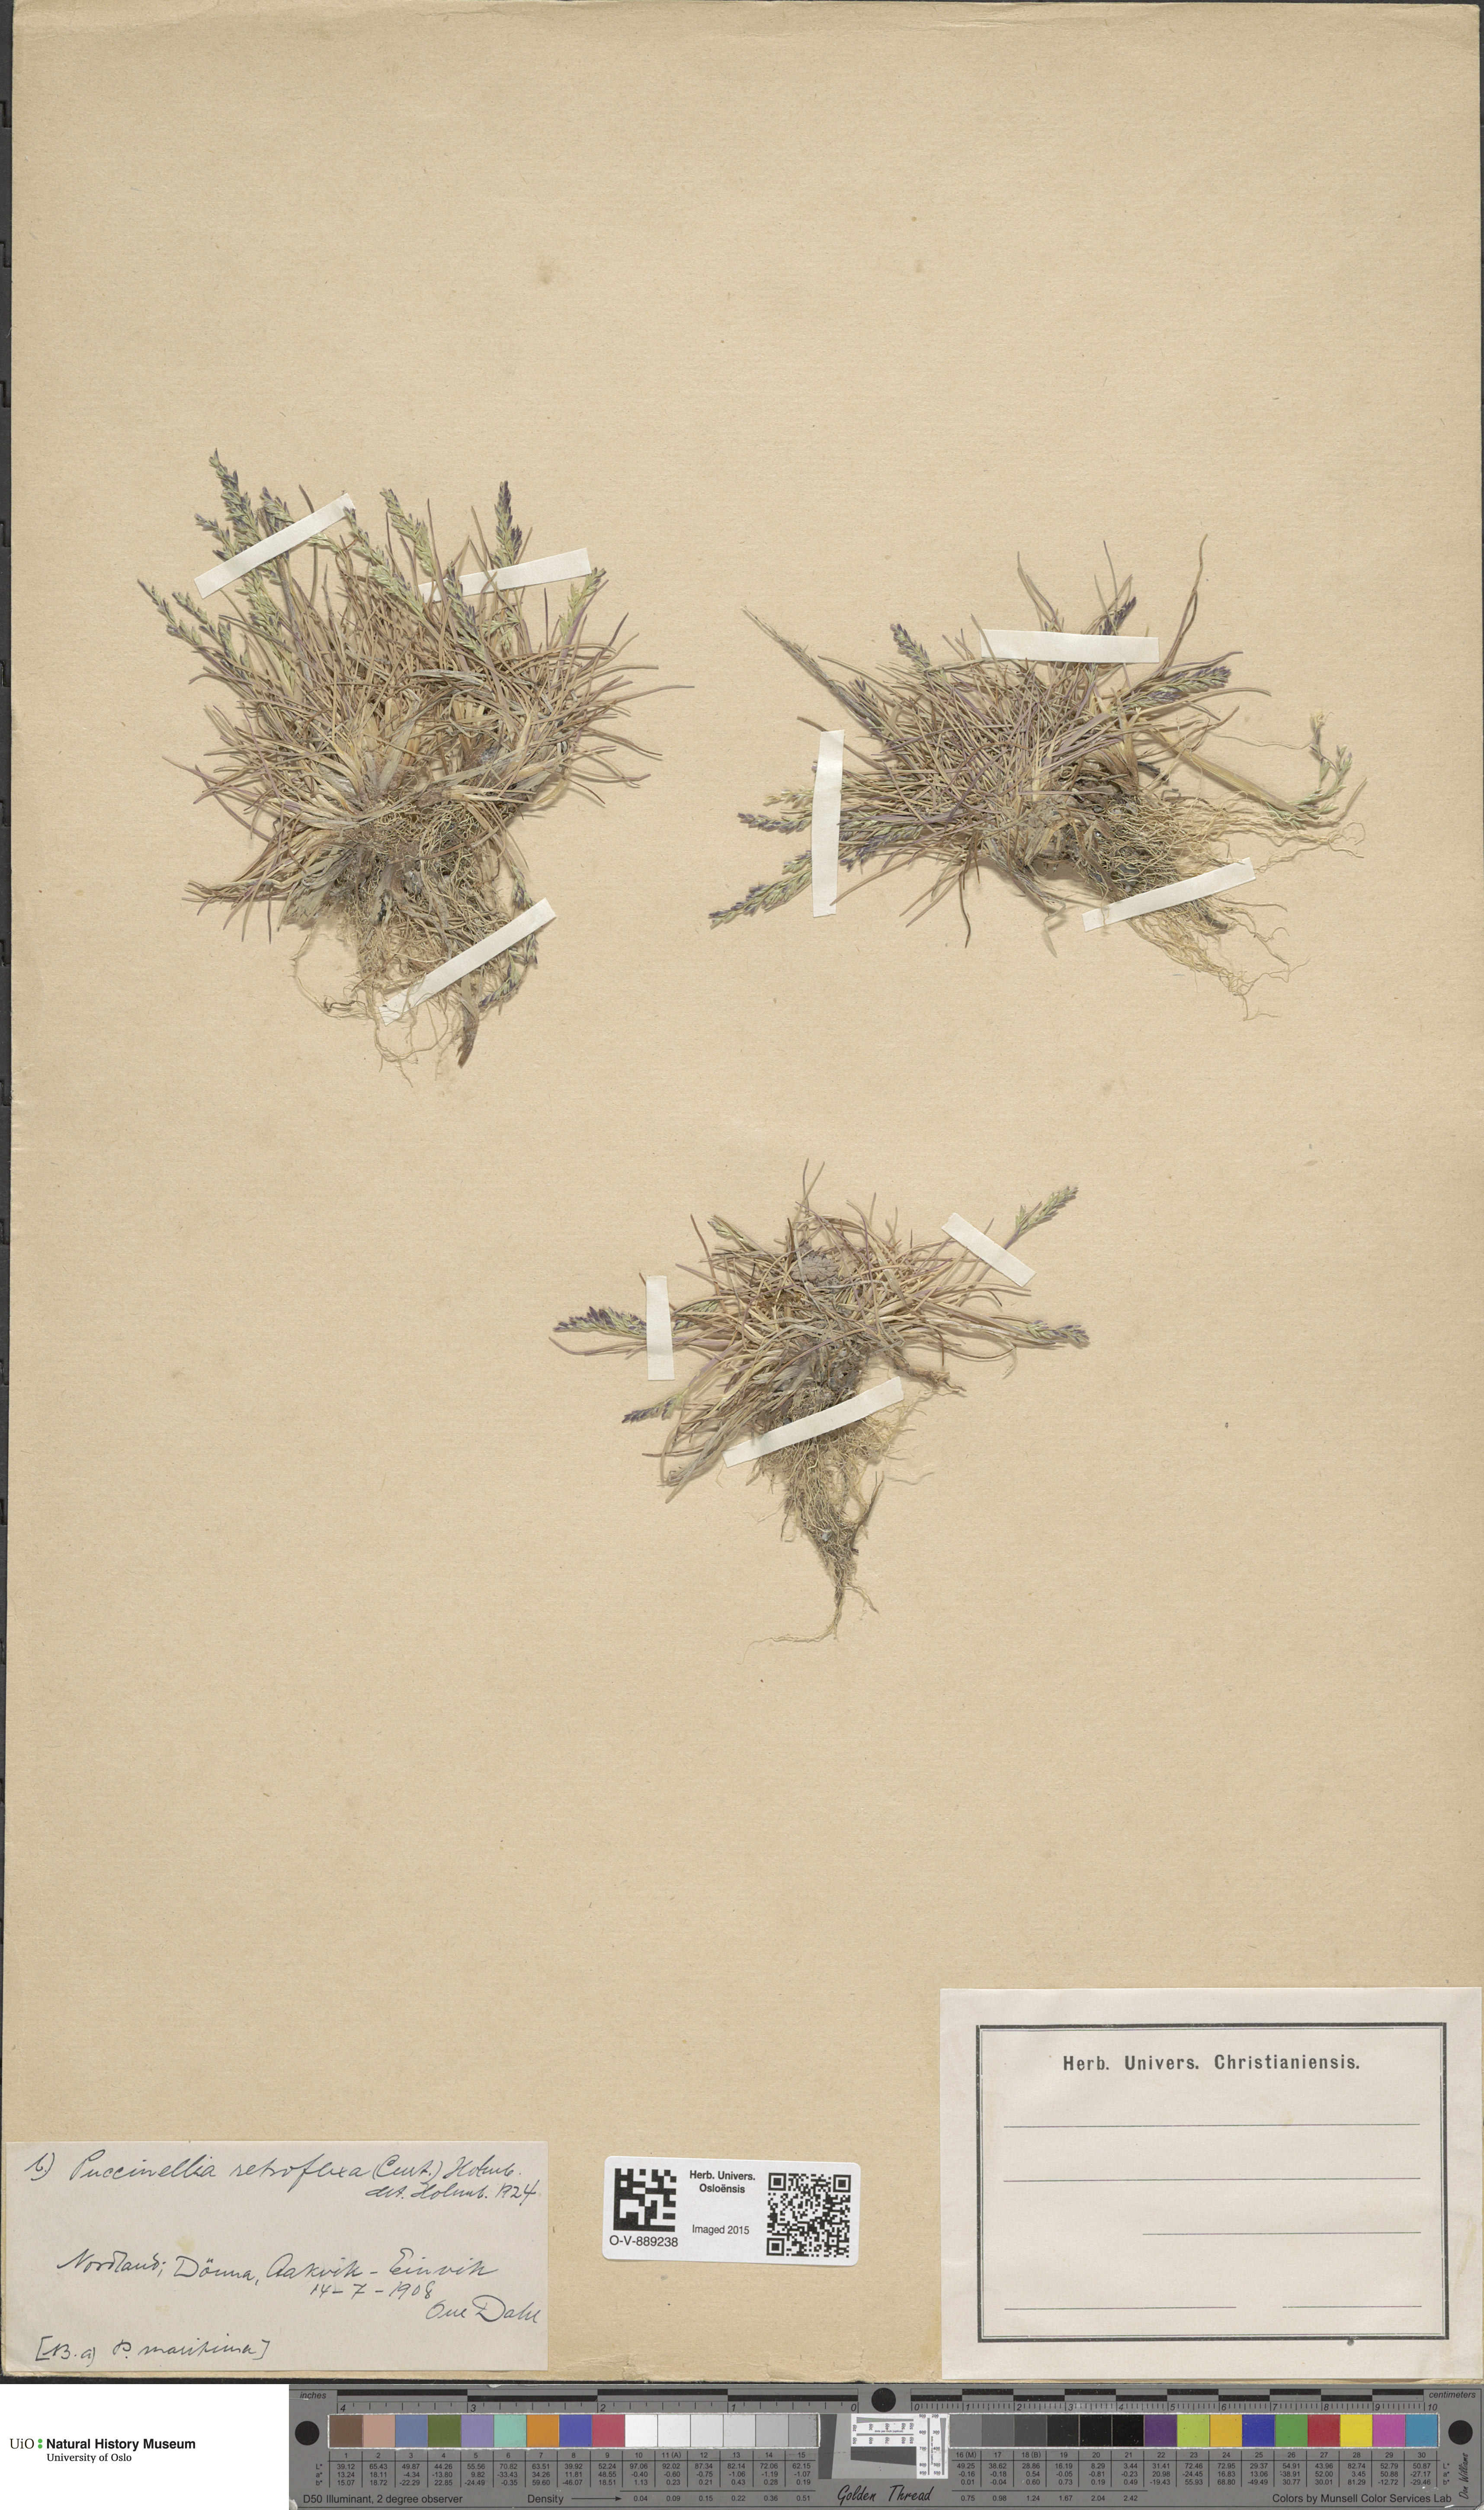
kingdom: Plantae
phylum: Tracheophyta
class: Liliopsida
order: Poales
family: Poaceae
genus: Puccinellia
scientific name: Puccinellia distans
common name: Weeping alkaligrass
